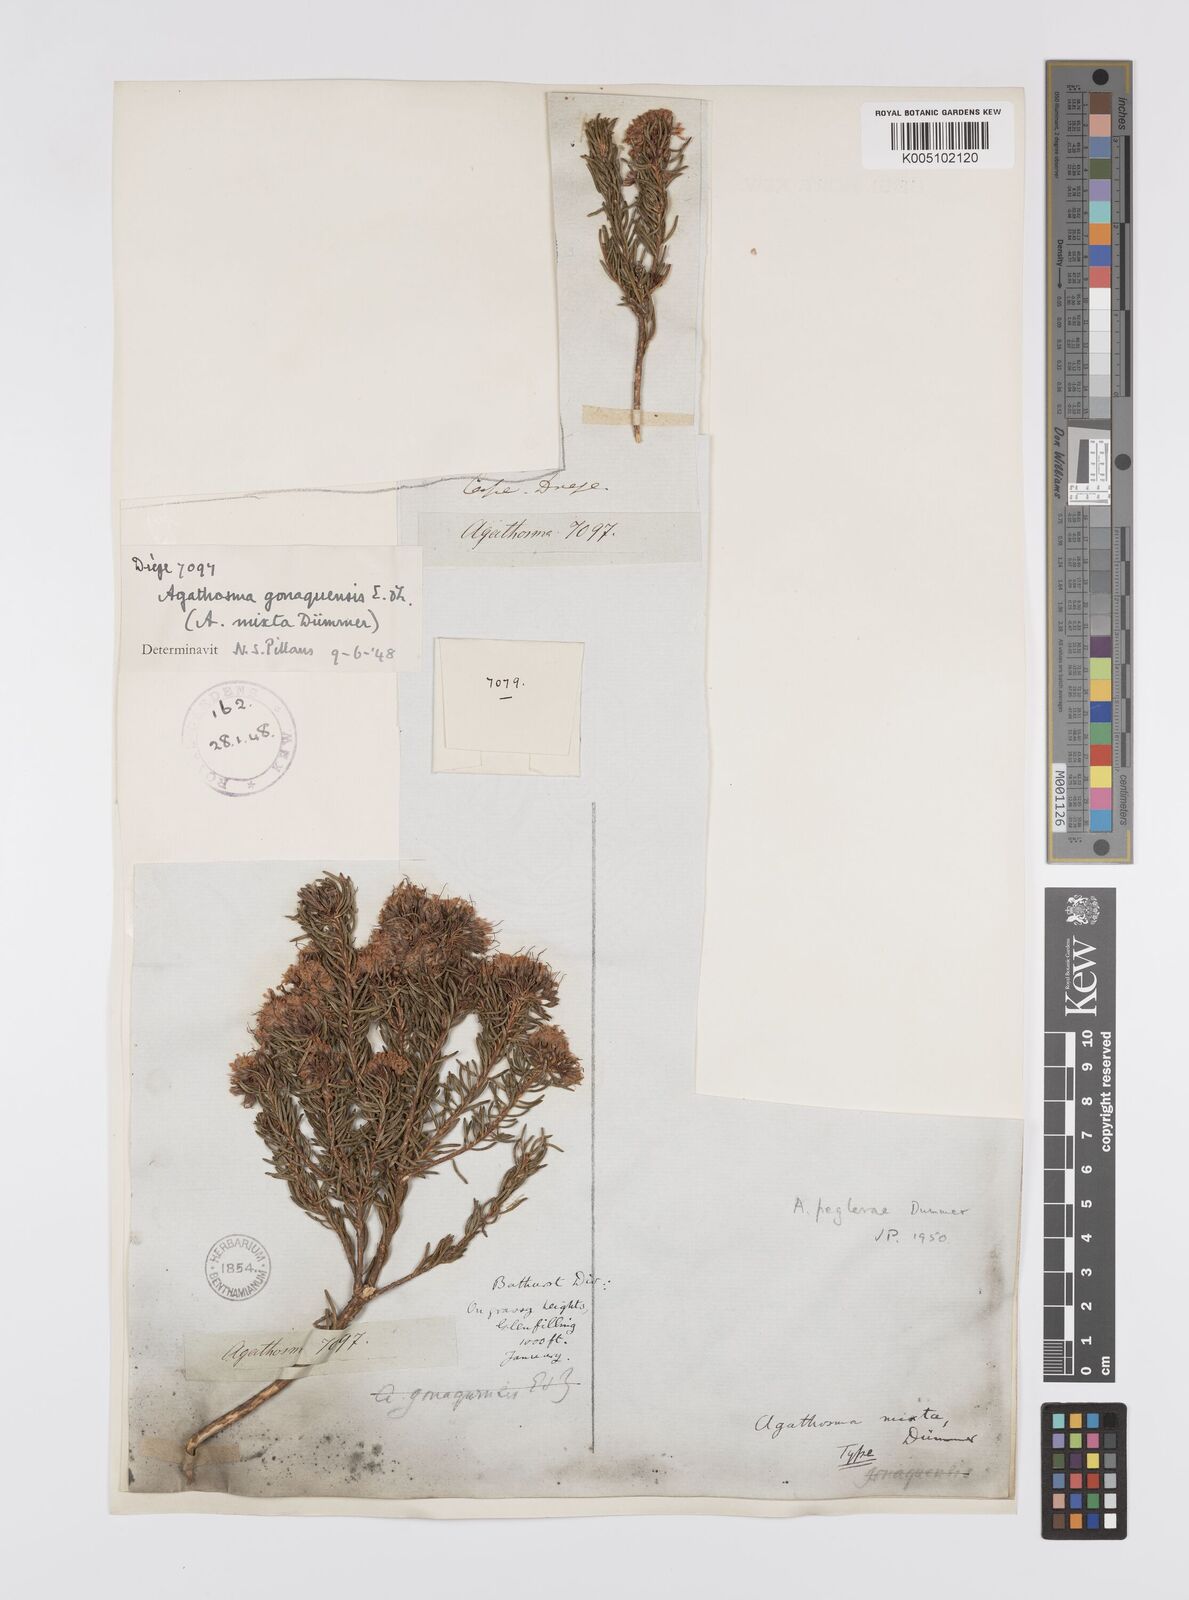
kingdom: Plantae
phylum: Tracheophyta
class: Magnoliopsida
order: Sapindales
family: Rutaceae
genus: Agathosma
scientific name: Agathosma gonaquensis
